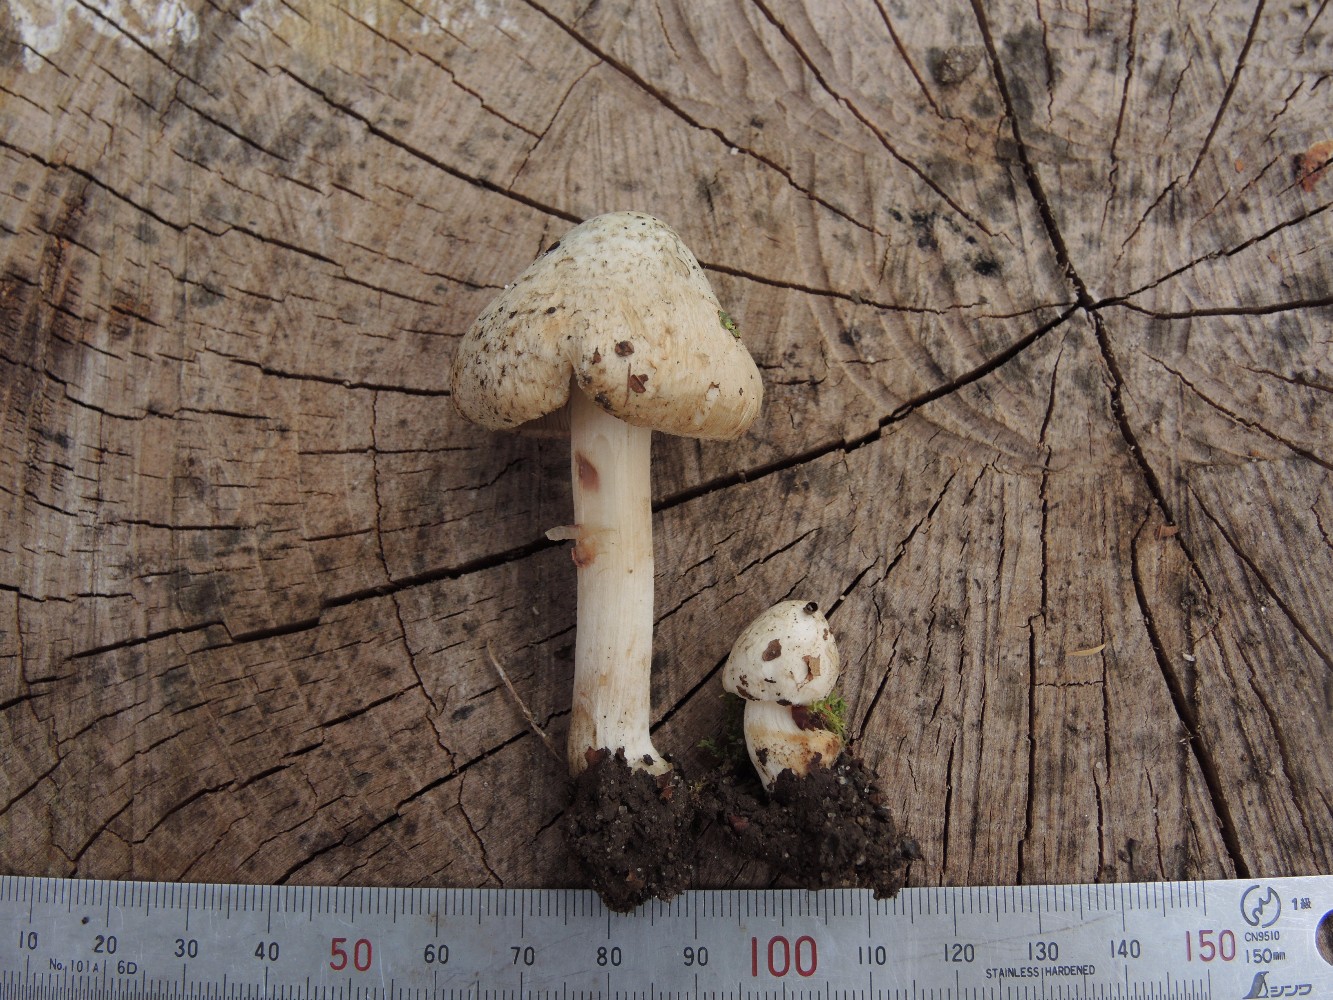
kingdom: Fungi
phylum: Basidiomycota
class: Agaricomycetes
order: Agaricales
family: Inocybaceae
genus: Inocybe
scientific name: Inocybe corydalina
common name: grønpuklet trævlhat
